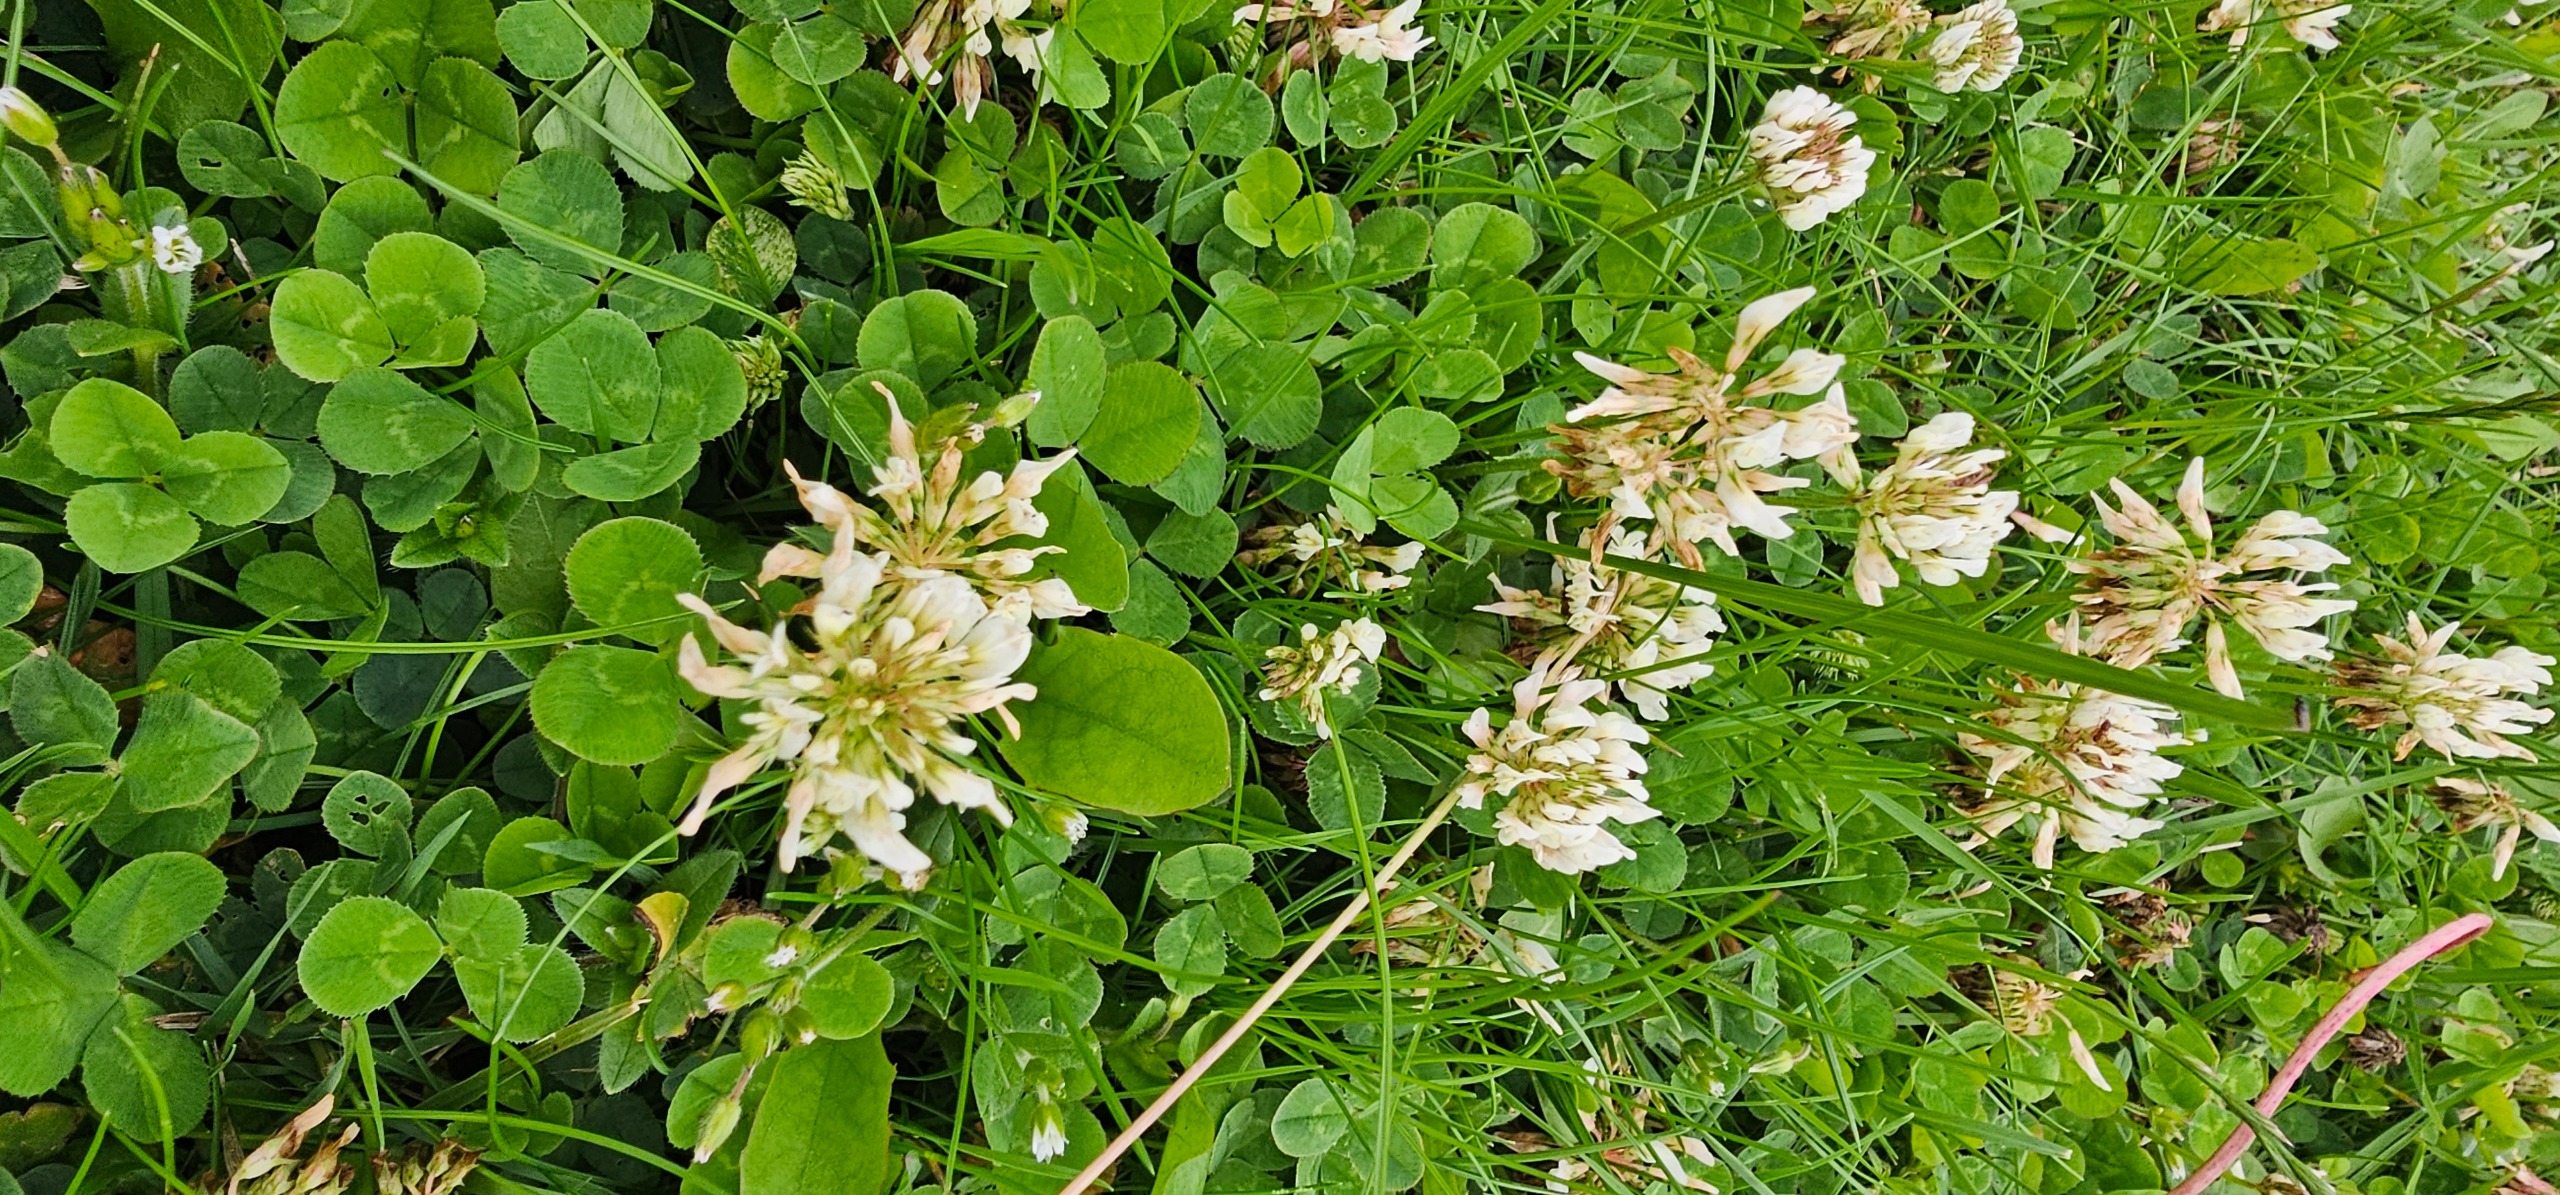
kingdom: Plantae
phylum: Tracheophyta
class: Magnoliopsida
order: Fabales
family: Fabaceae
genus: Trifolium
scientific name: Trifolium repens
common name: Hvid-kløver
